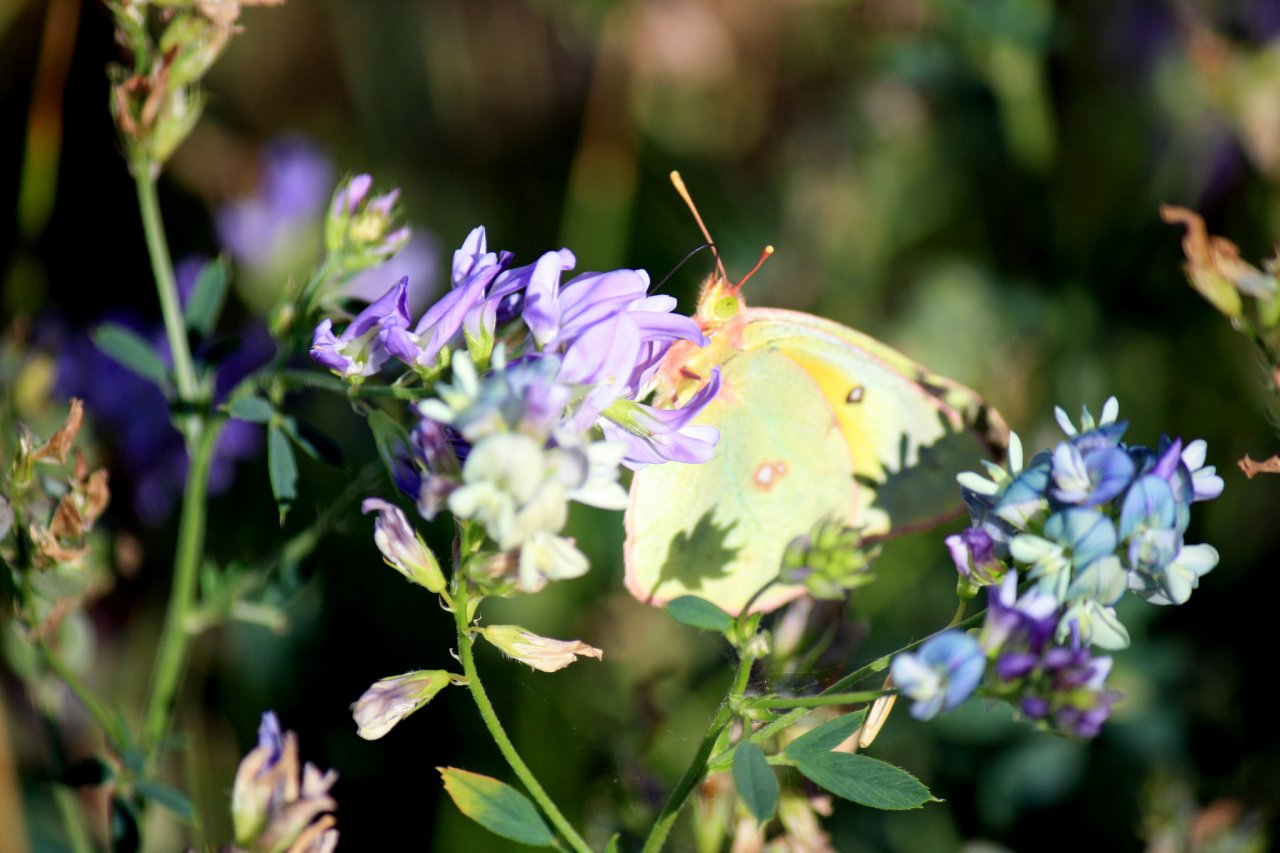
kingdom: Animalia
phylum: Arthropoda
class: Insecta
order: Lepidoptera
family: Pieridae
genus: Colias
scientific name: Colias philodice
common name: Clouded Sulphur
